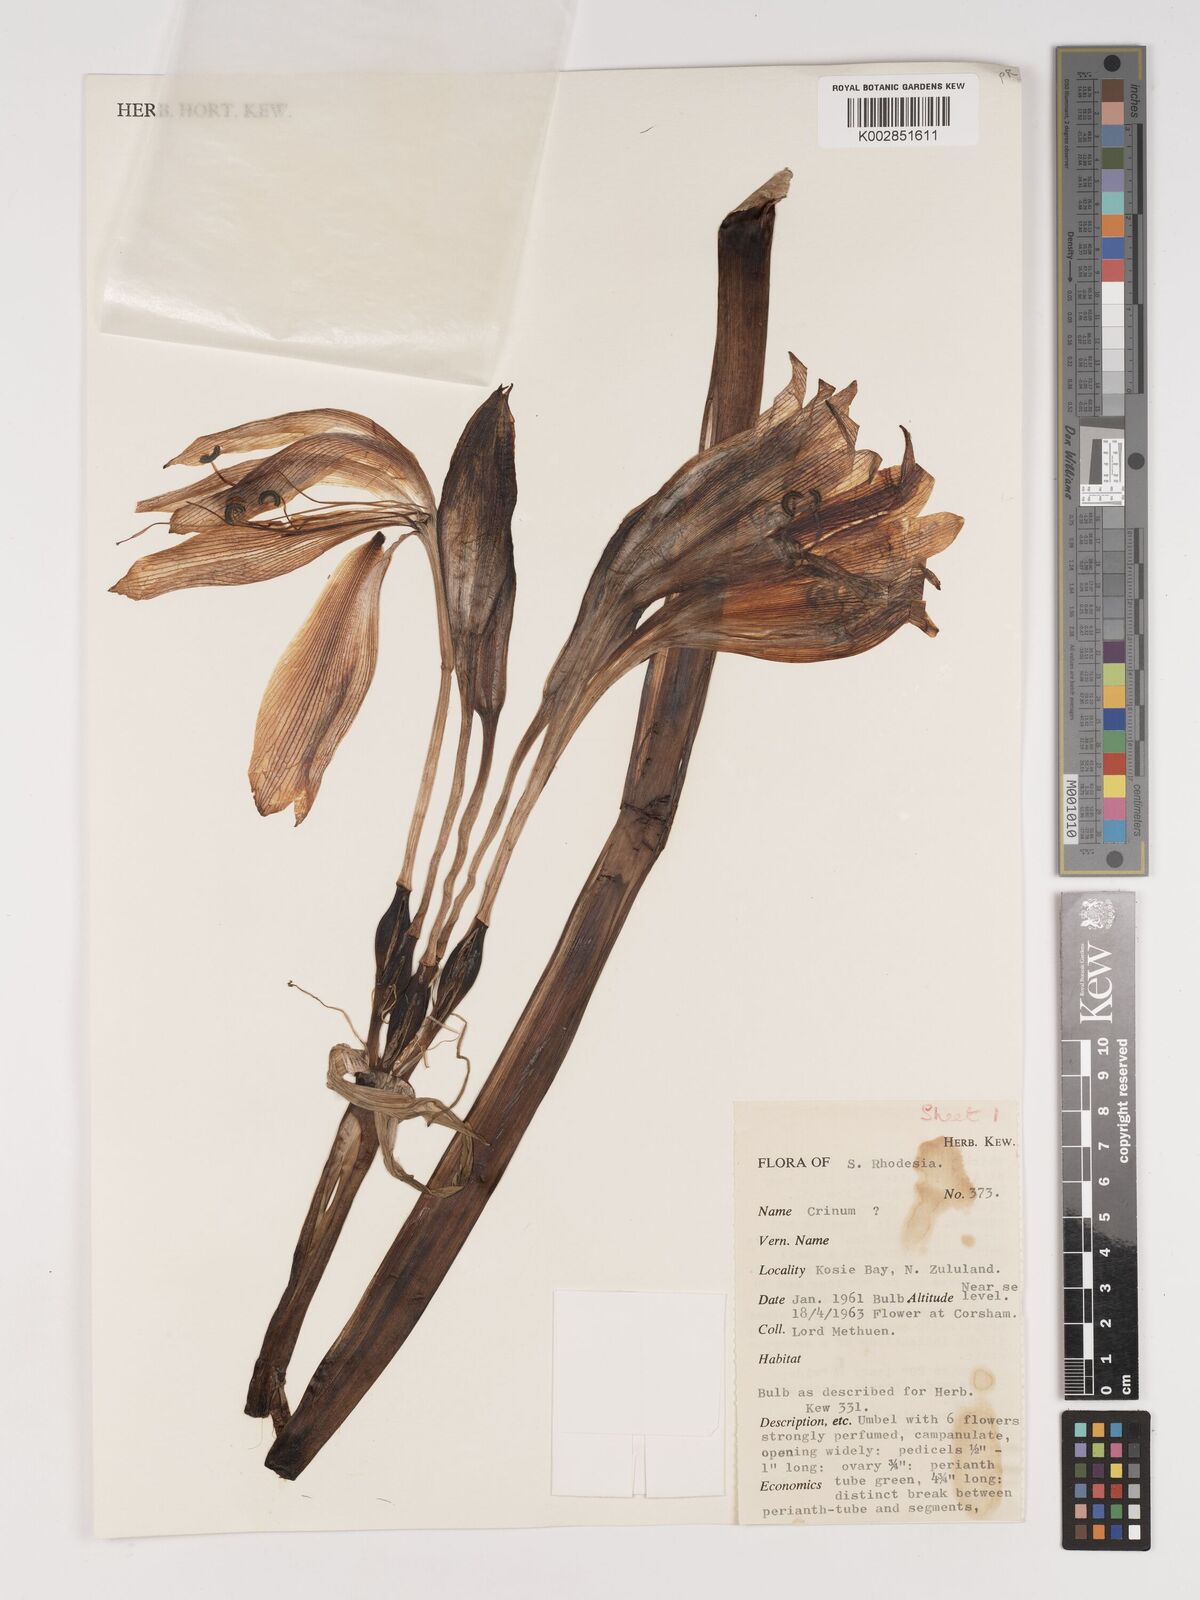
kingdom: Plantae
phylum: Tracheophyta
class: Liliopsida
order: Asparagales
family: Amaryllidaceae
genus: Crinum
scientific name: Crinum macowanii
